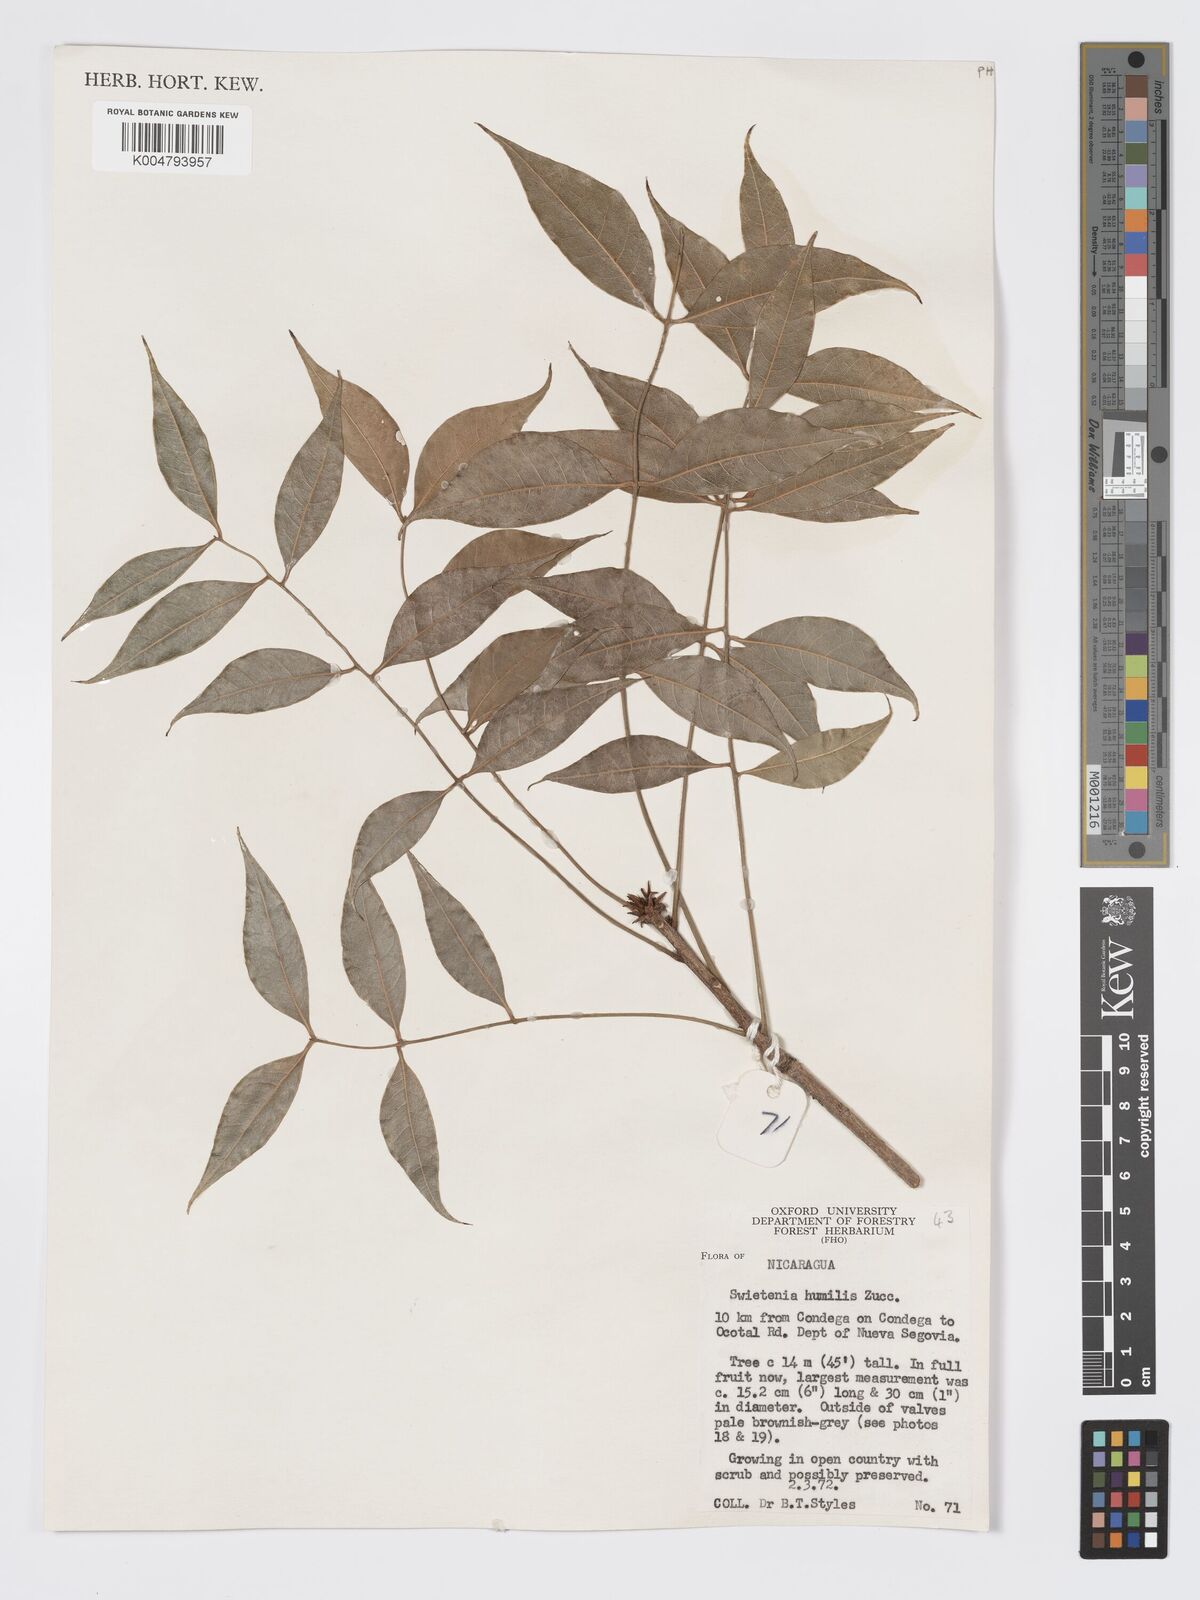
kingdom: Plantae
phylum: Tracheophyta
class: Magnoliopsida
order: Sapindales
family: Meliaceae
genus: Swietenia
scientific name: Swietenia humilis
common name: Pacific coast mahogany
